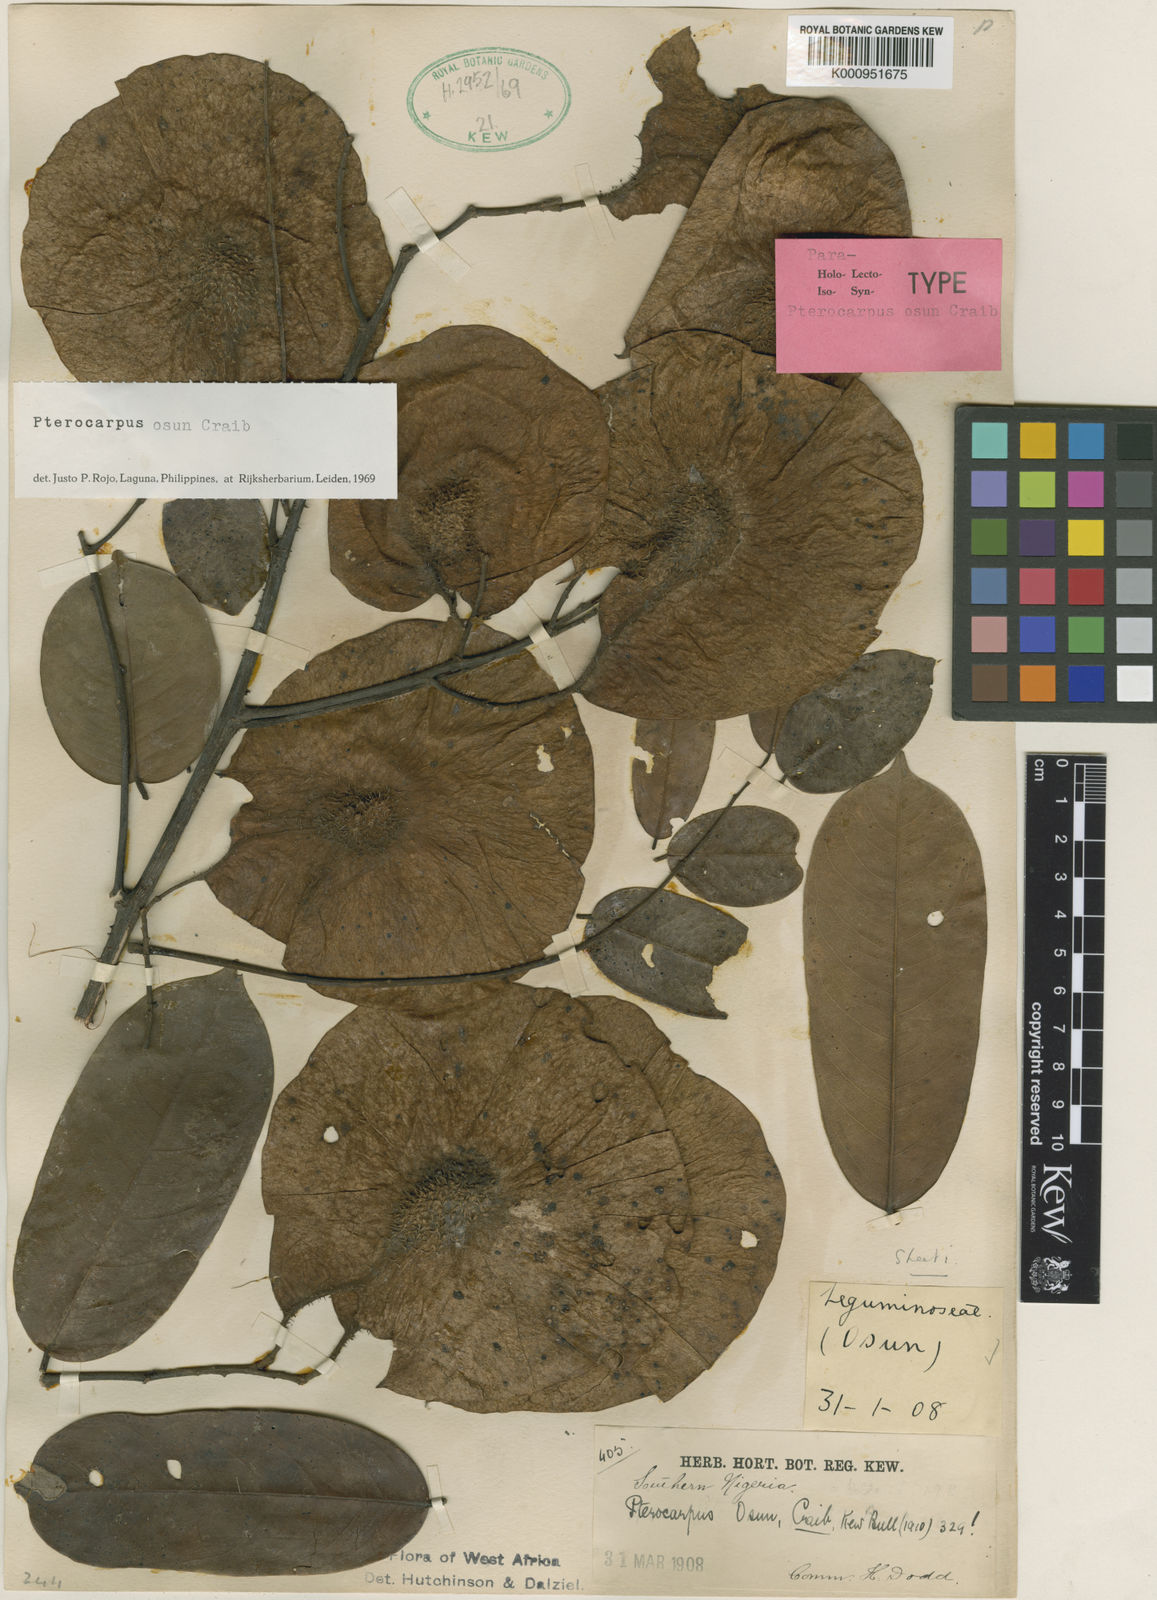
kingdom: Plantae
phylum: Tracheophyta
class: Magnoliopsida
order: Fabales
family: Fabaceae
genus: Pterocarpus
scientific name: Pterocarpus osun
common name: Camwood
